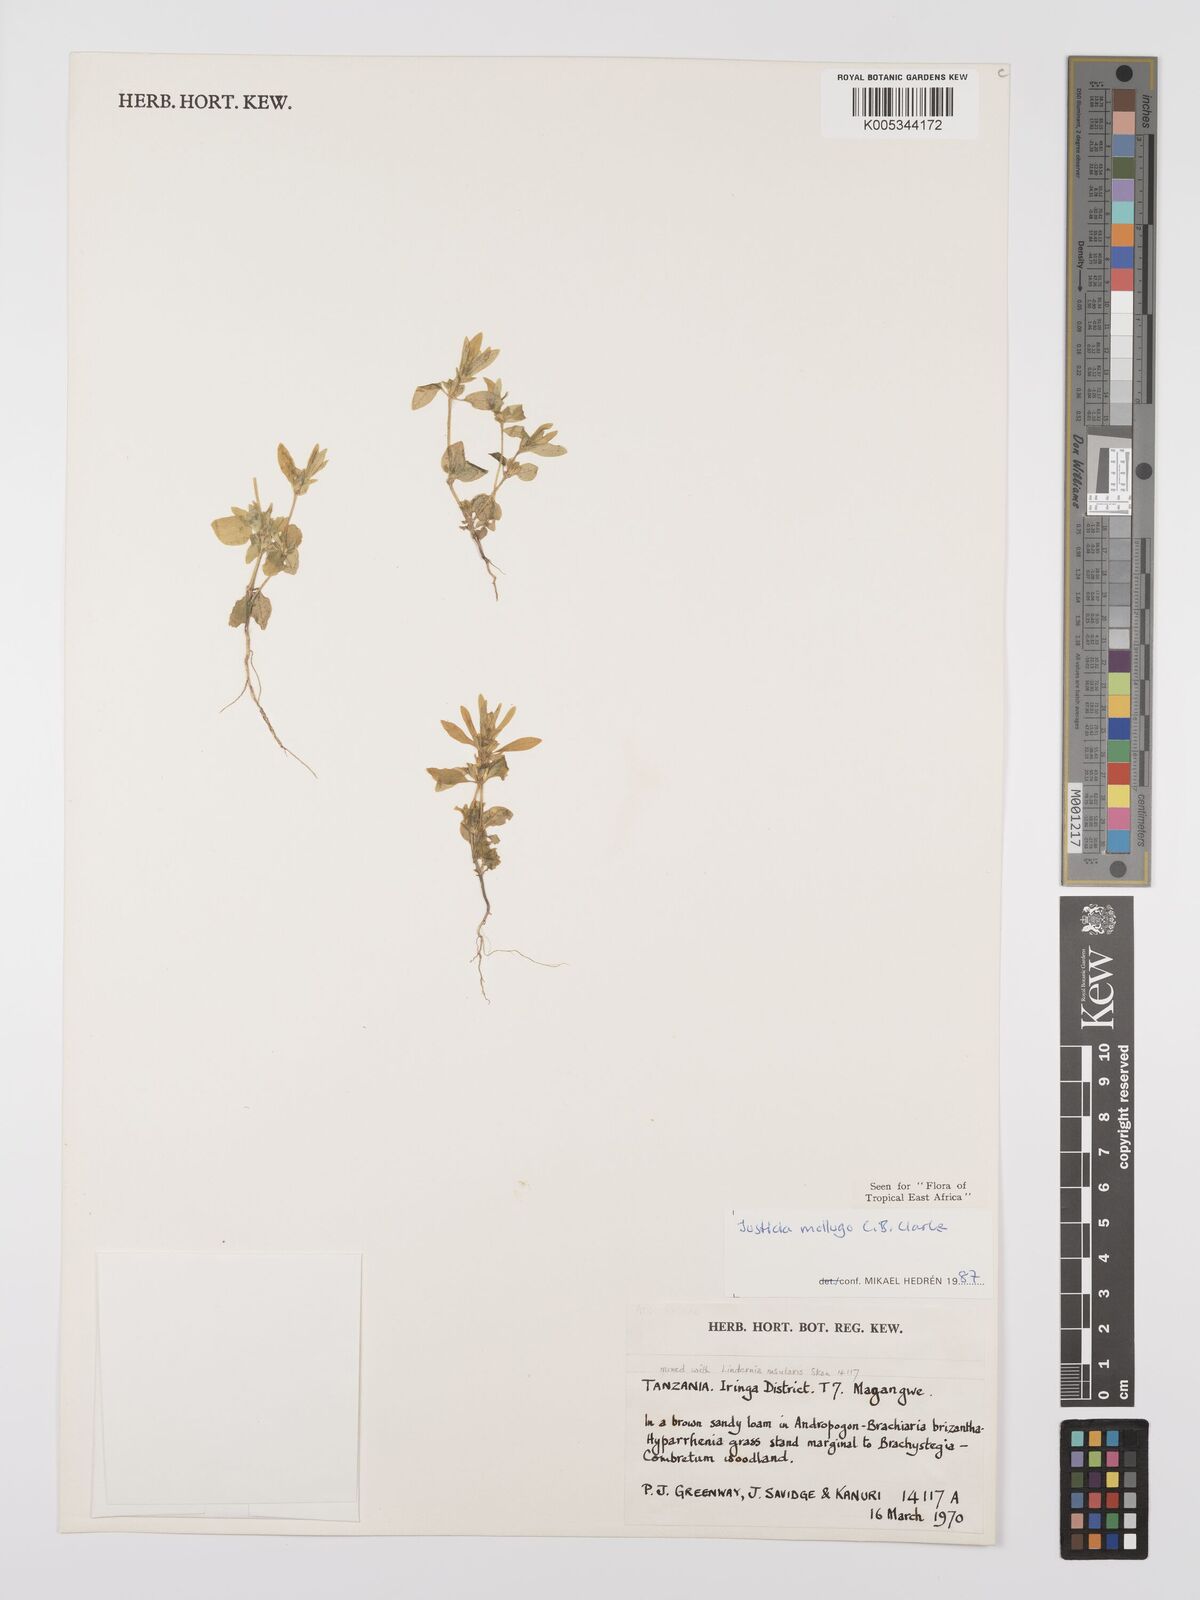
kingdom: Plantae
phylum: Tracheophyta
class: Magnoliopsida
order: Lamiales
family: Acanthaceae
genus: Justicia
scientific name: Justicia mollugo
